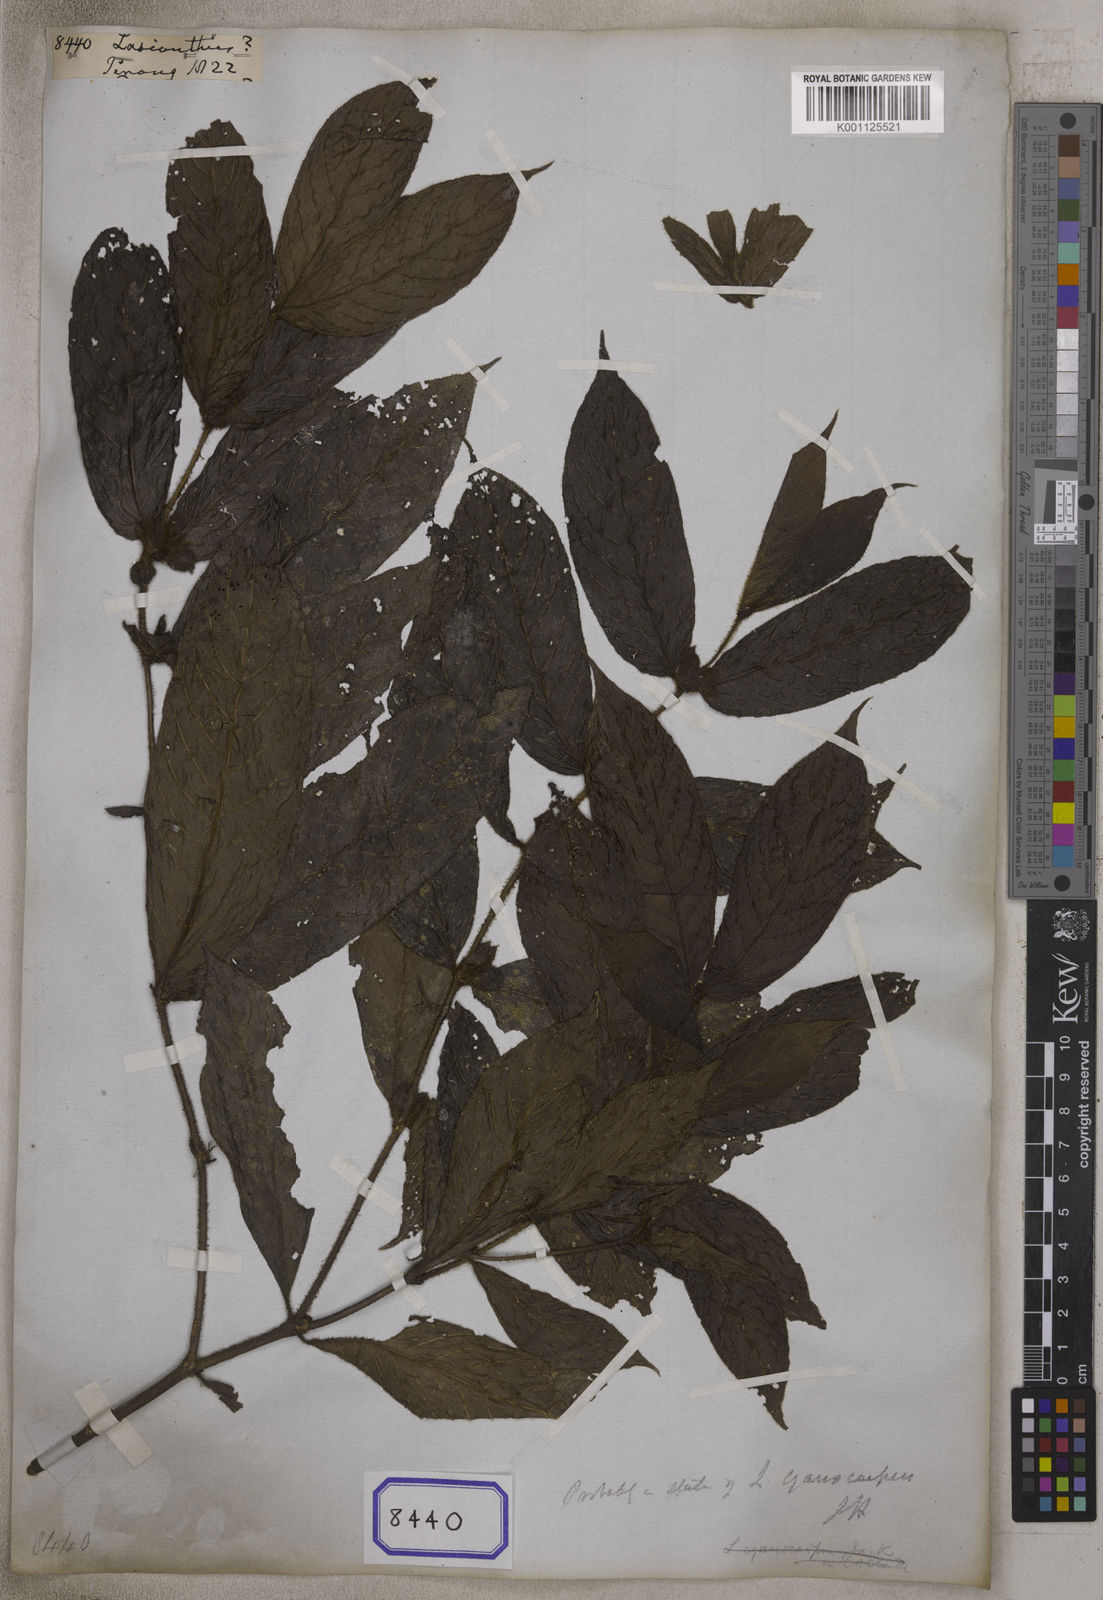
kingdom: Plantae
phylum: Tracheophyta
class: Magnoliopsida
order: Gentianales
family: Rubiaceae
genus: Lasianthus
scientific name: Lasianthus
